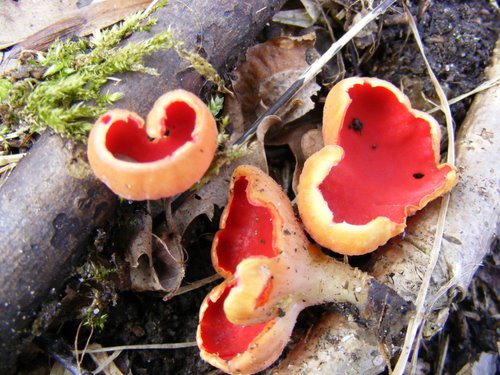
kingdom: Fungi
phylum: Ascomycota
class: Pezizomycetes
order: Pezizales
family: Sarcoscyphaceae
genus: Sarcoscypha
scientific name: Sarcoscypha austriaca
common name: krølhåret pragtbæger
